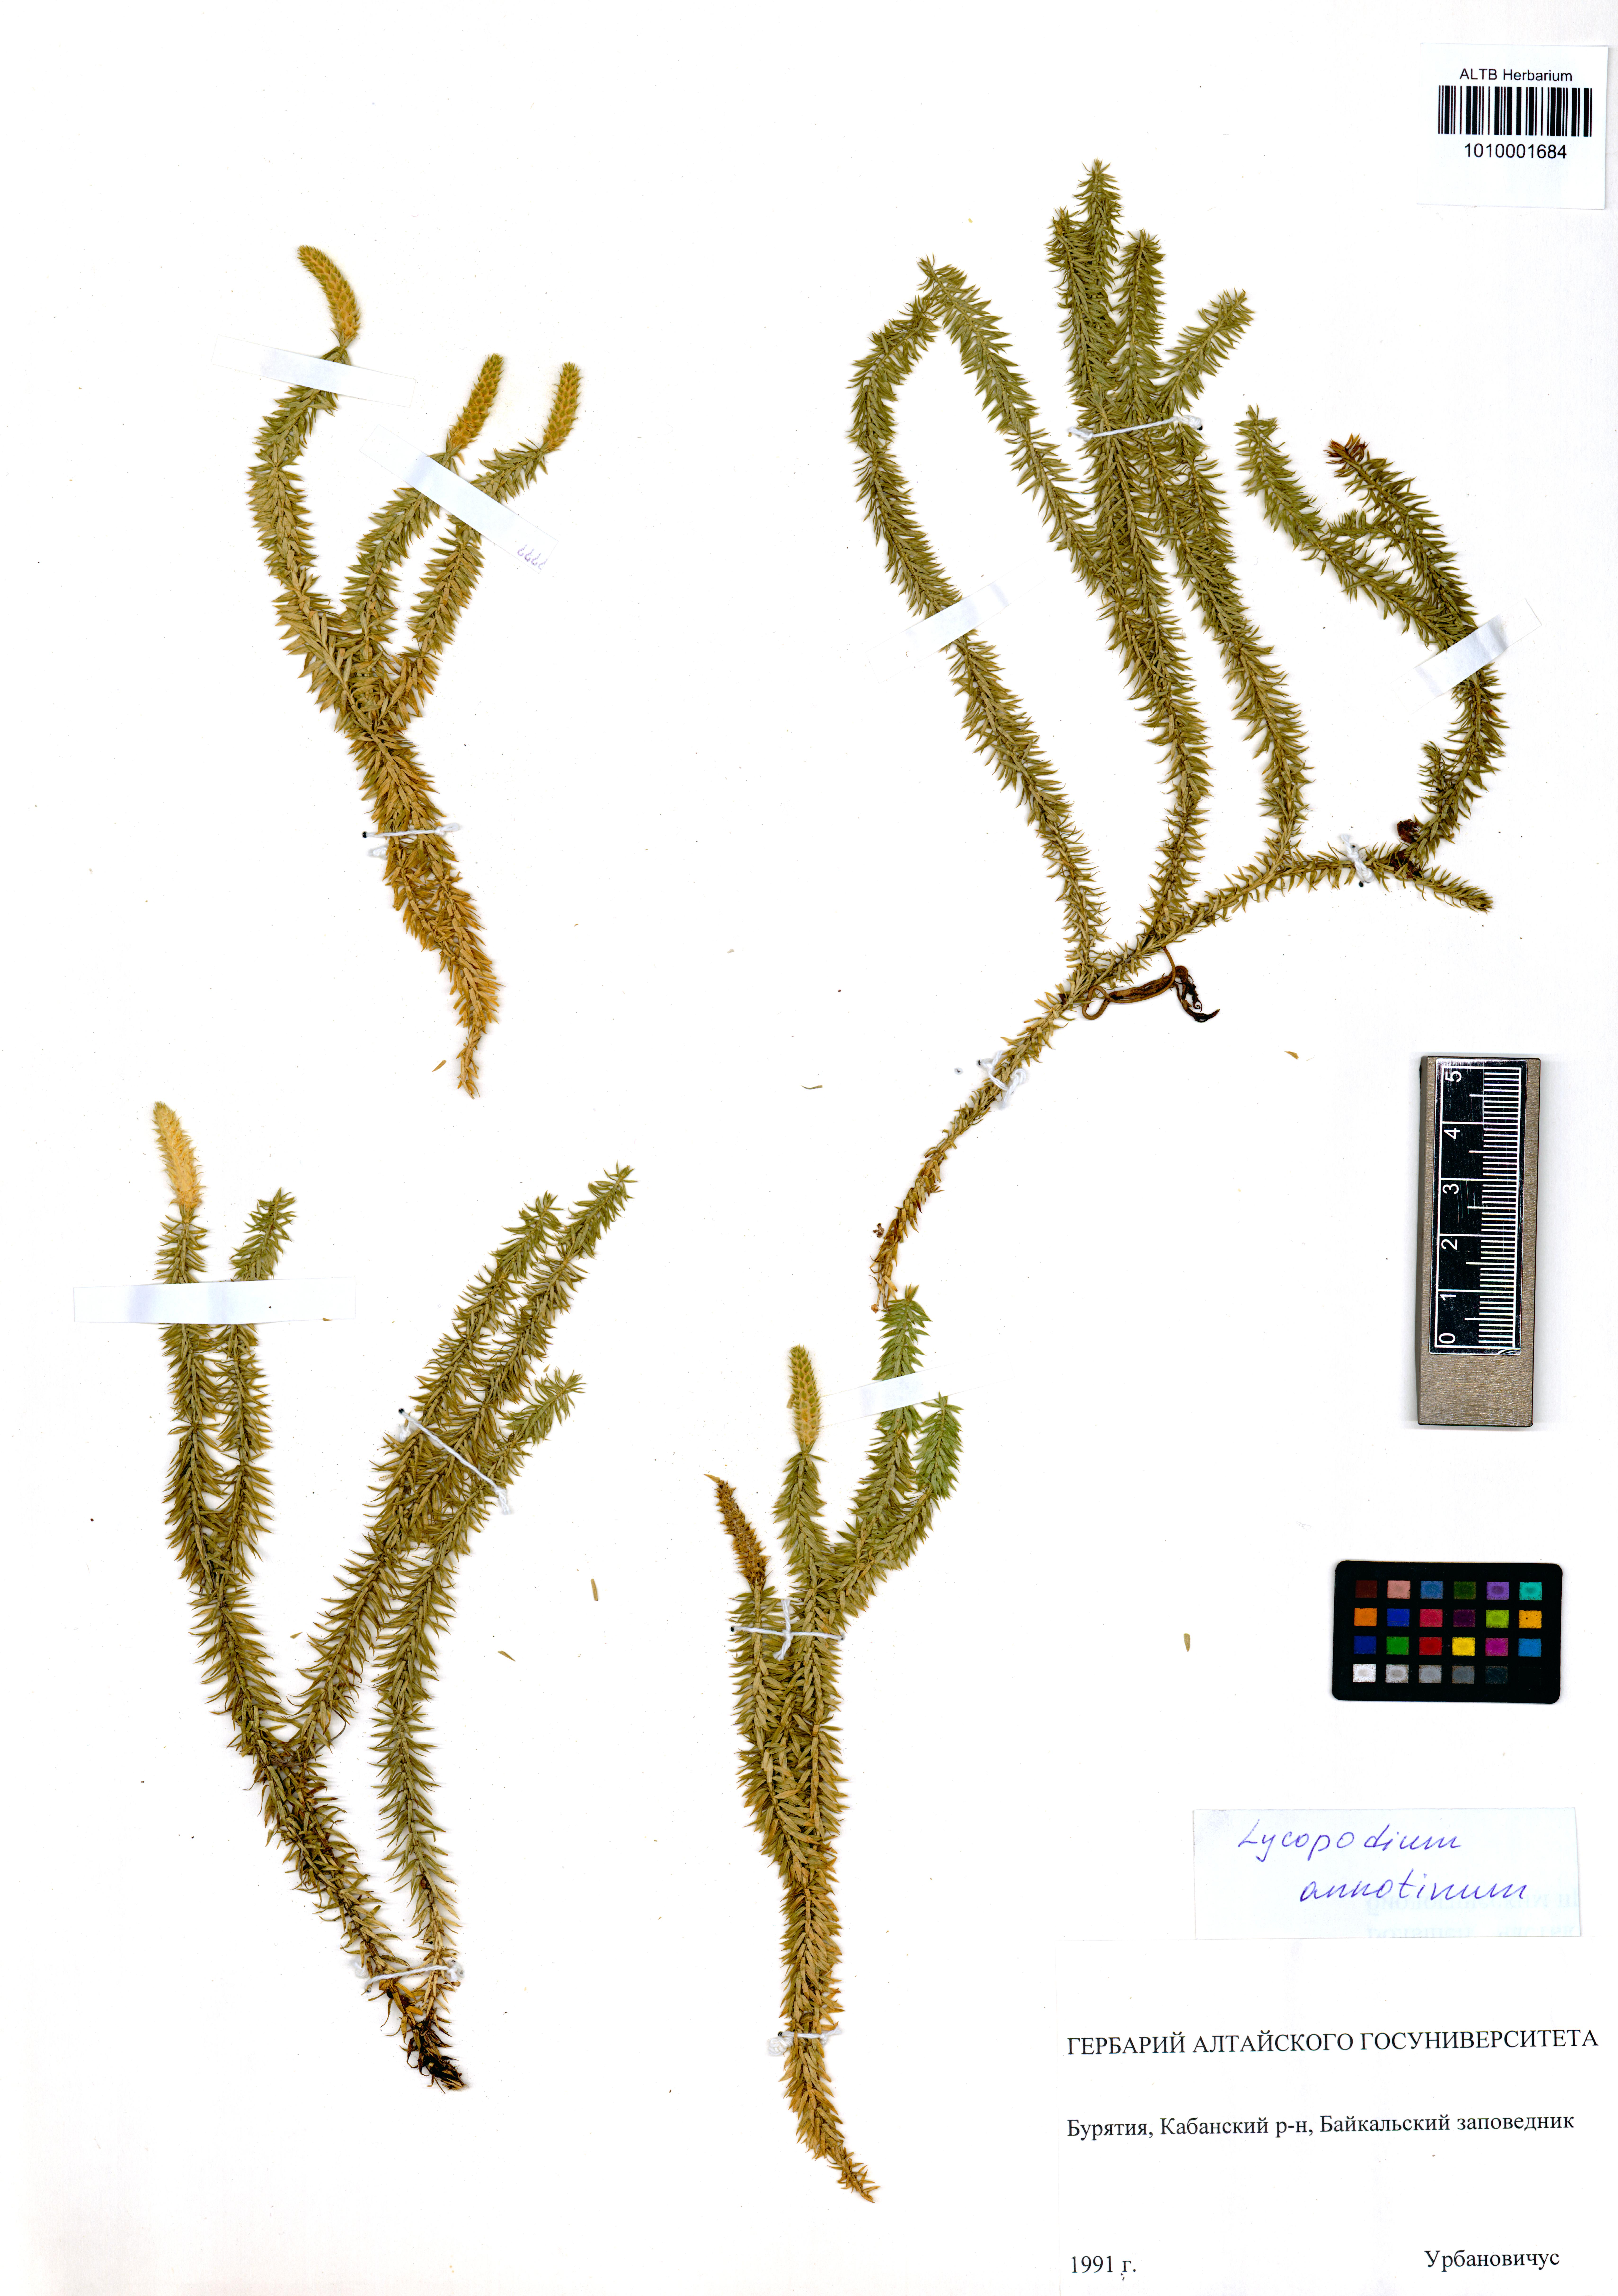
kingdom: Plantae
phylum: Tracheophyta
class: Lycopodiopsida
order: Lycopodiales
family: Lycopodiaceae
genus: Spinulum
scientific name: Spinulum annotinum
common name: Interrupted club-moss
